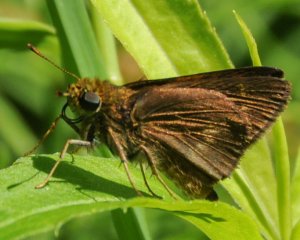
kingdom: Animalia
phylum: Arthropoda
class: Insecta
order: Lepidoptera
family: Hesperiidae
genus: Euphyes
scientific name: Euphyes vestris
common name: Dun Skipper
